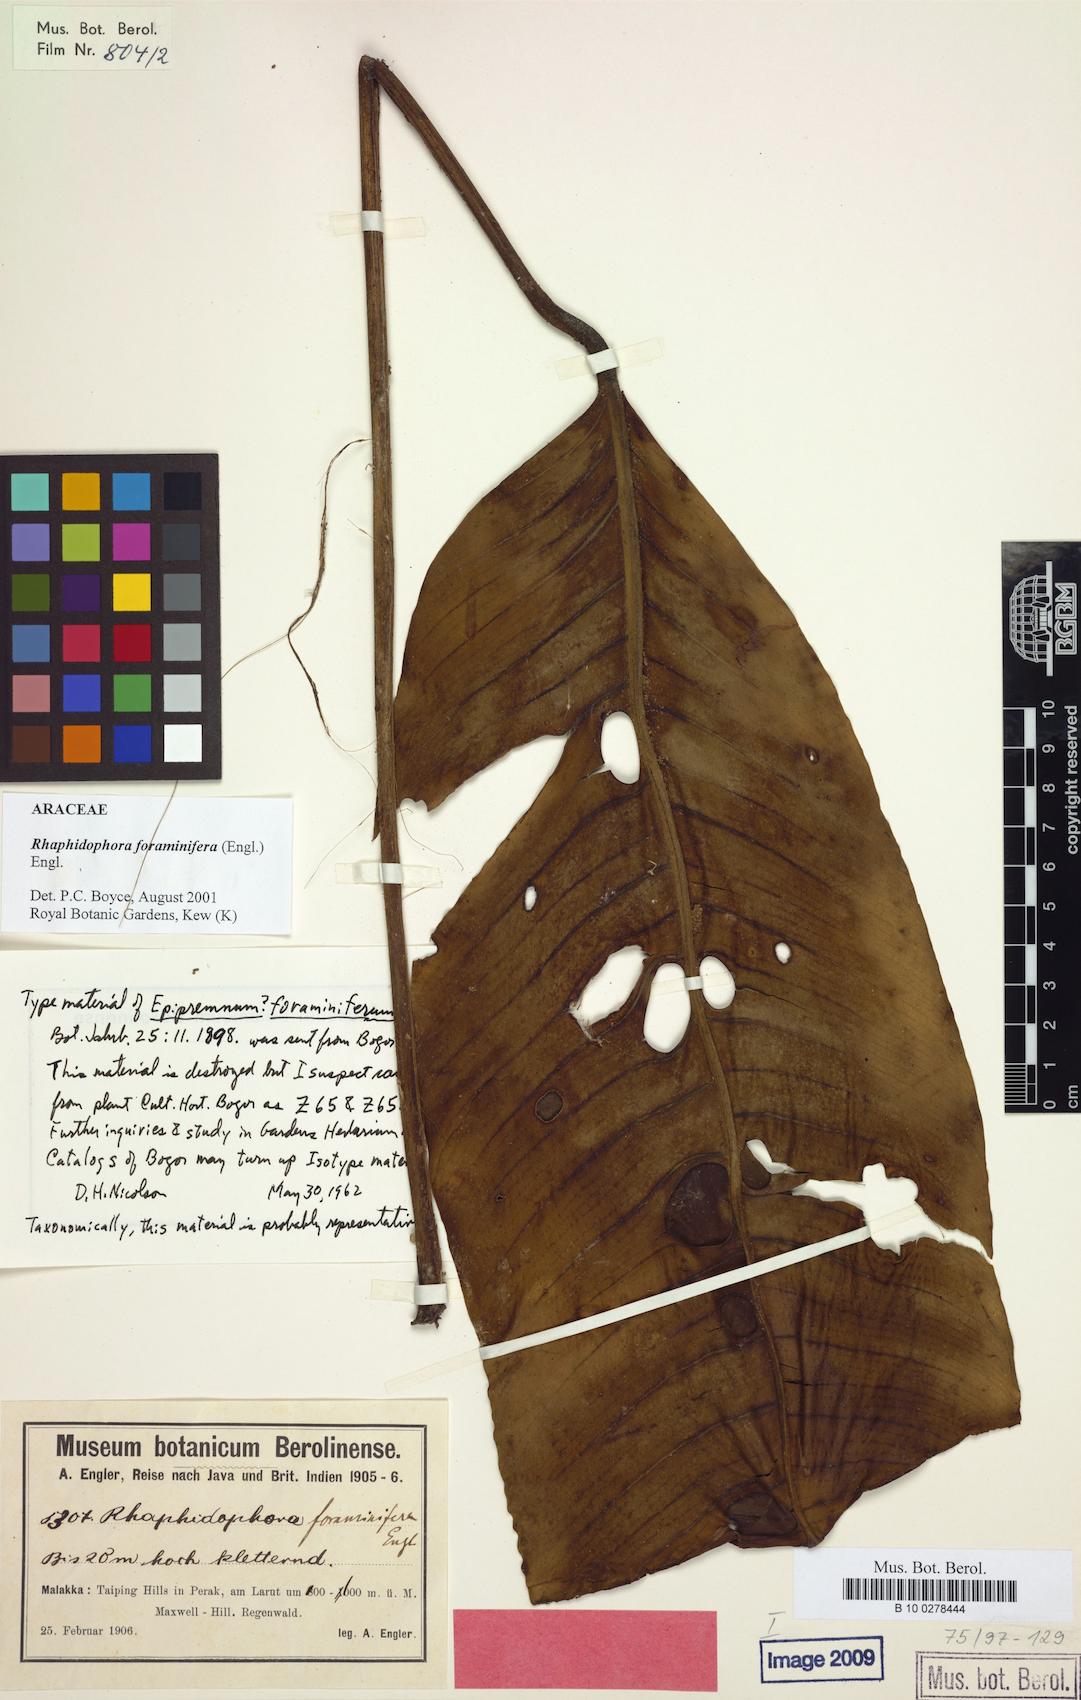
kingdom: Plantae
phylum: Tracheophyta
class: Liliopsida
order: Alismatales
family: Araceae
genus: Rhaphidophora
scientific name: Rhaphidophora foraminifera
